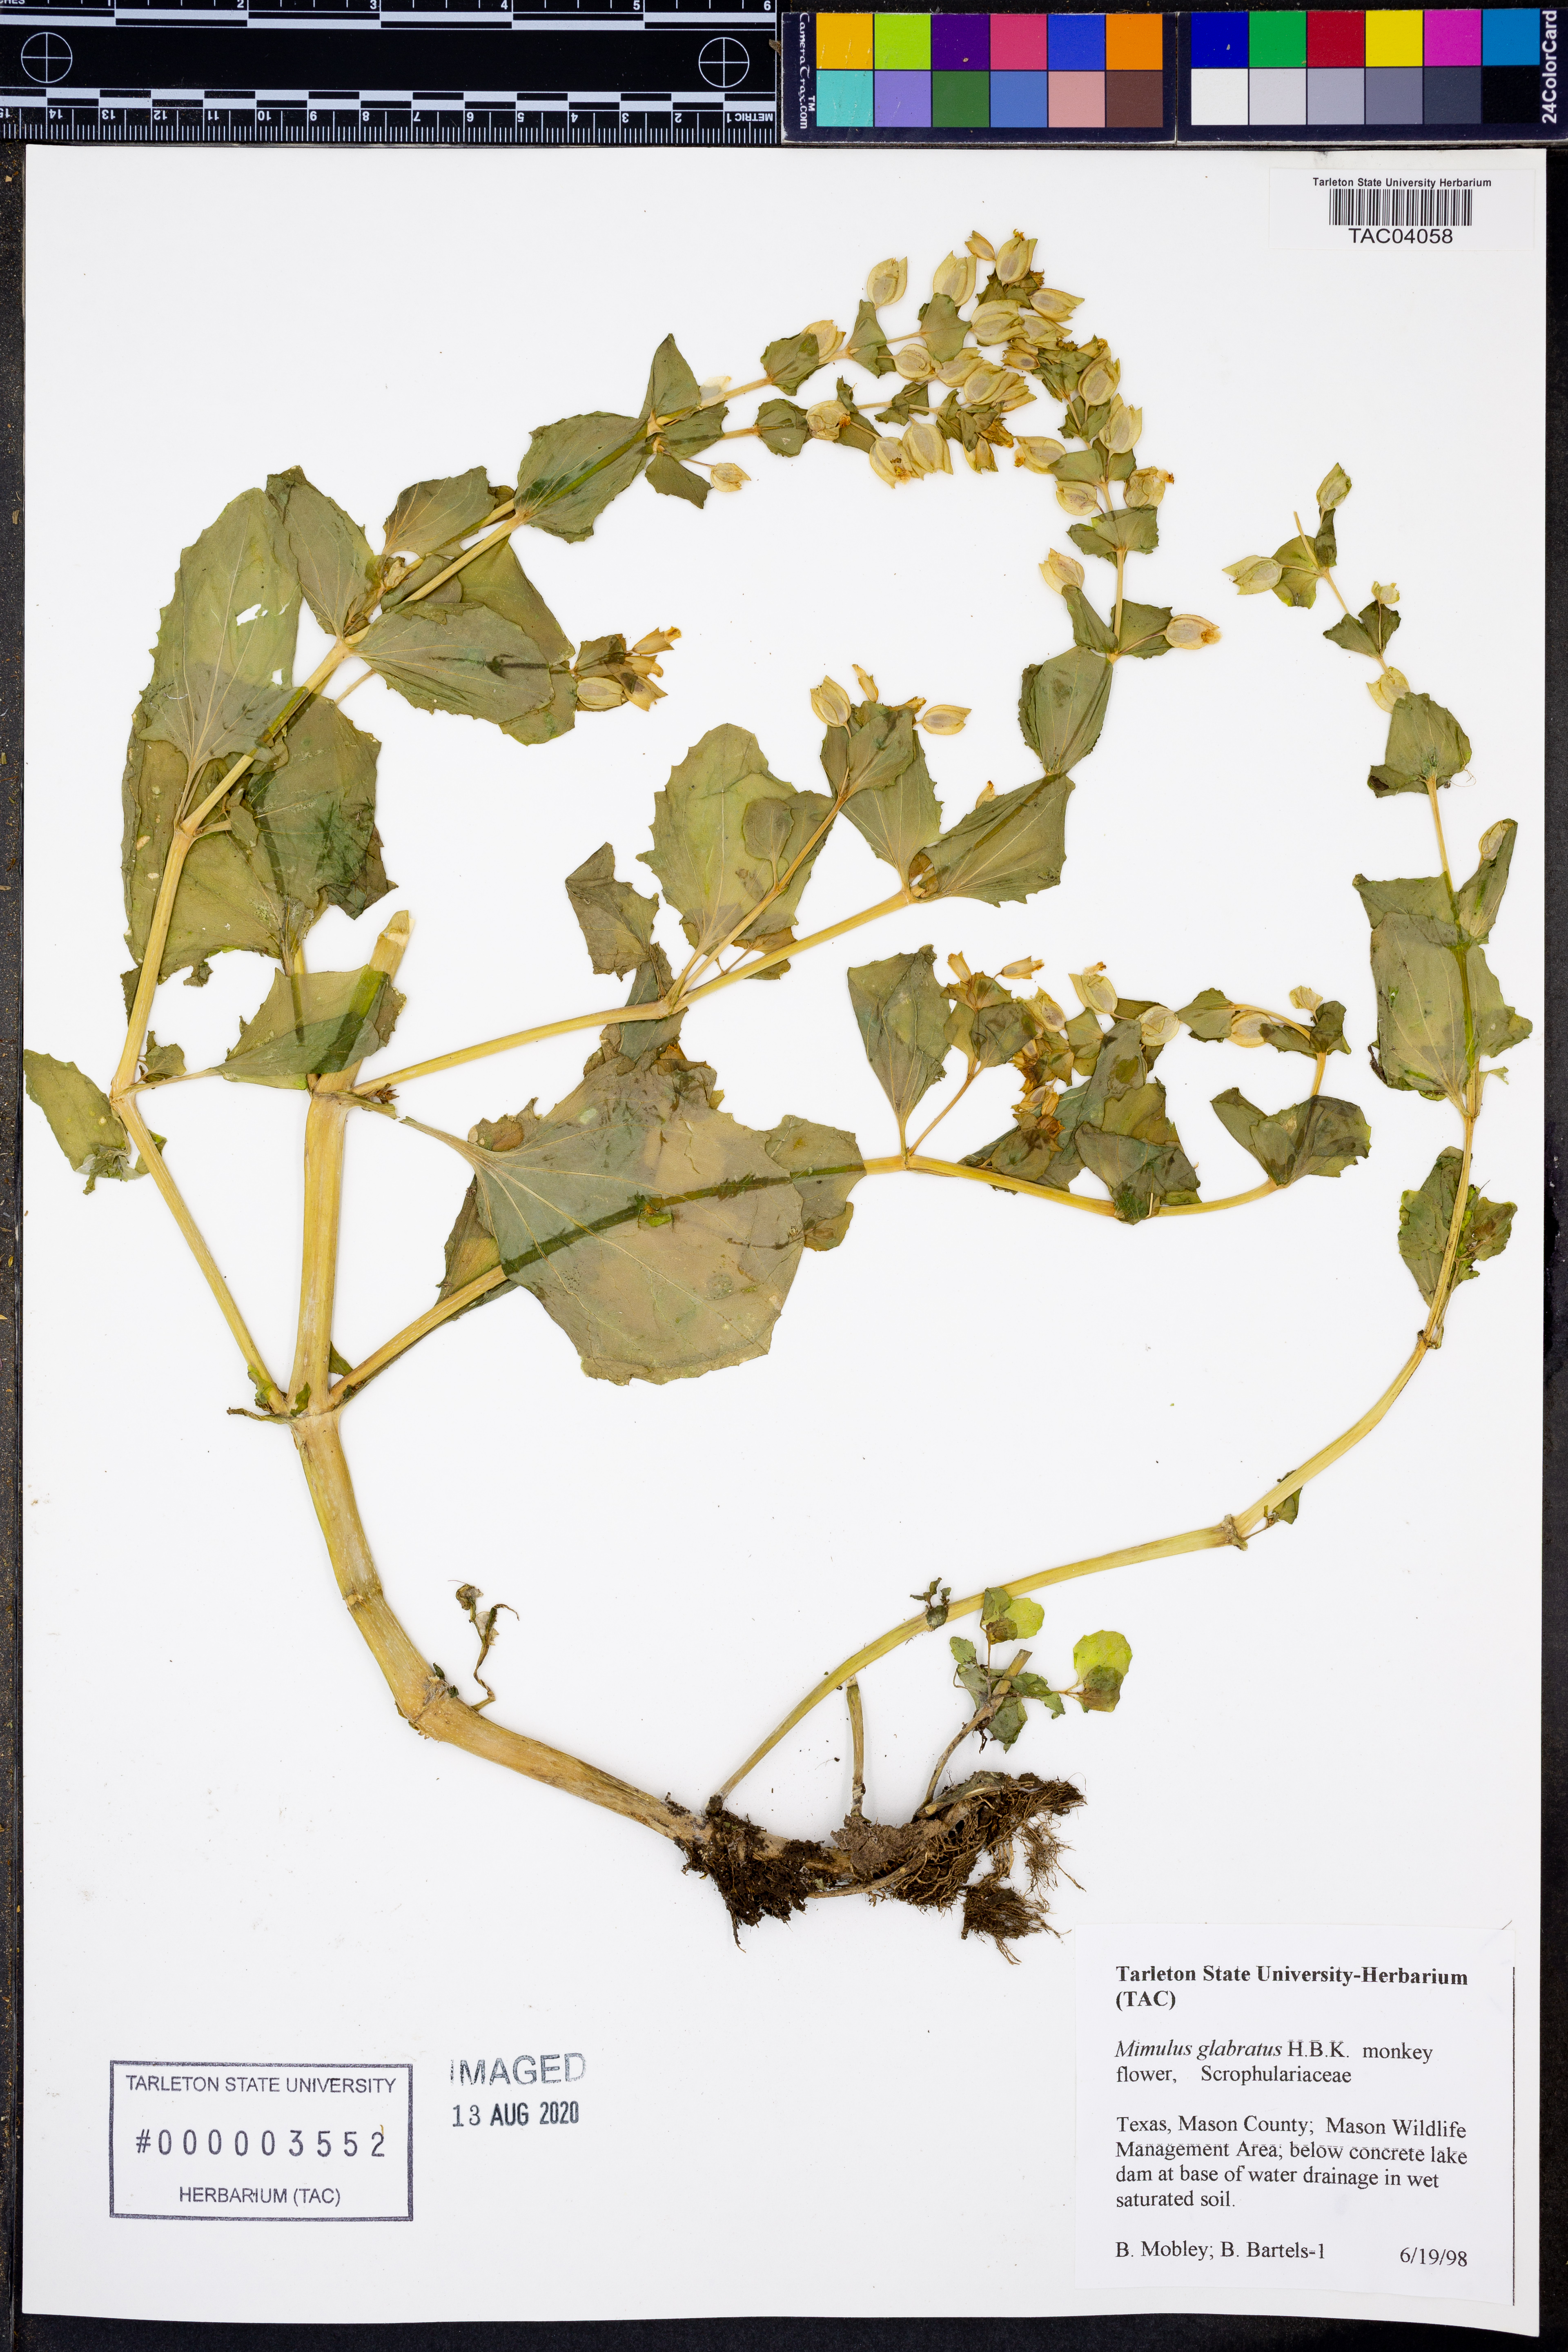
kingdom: Plantae
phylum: Tracheophyta
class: Magnoliopsida
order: Lamiales
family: Phrymaceae
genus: Erythranthe
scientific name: Erythranthe glabrata
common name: Round-leaved monkeyflower
